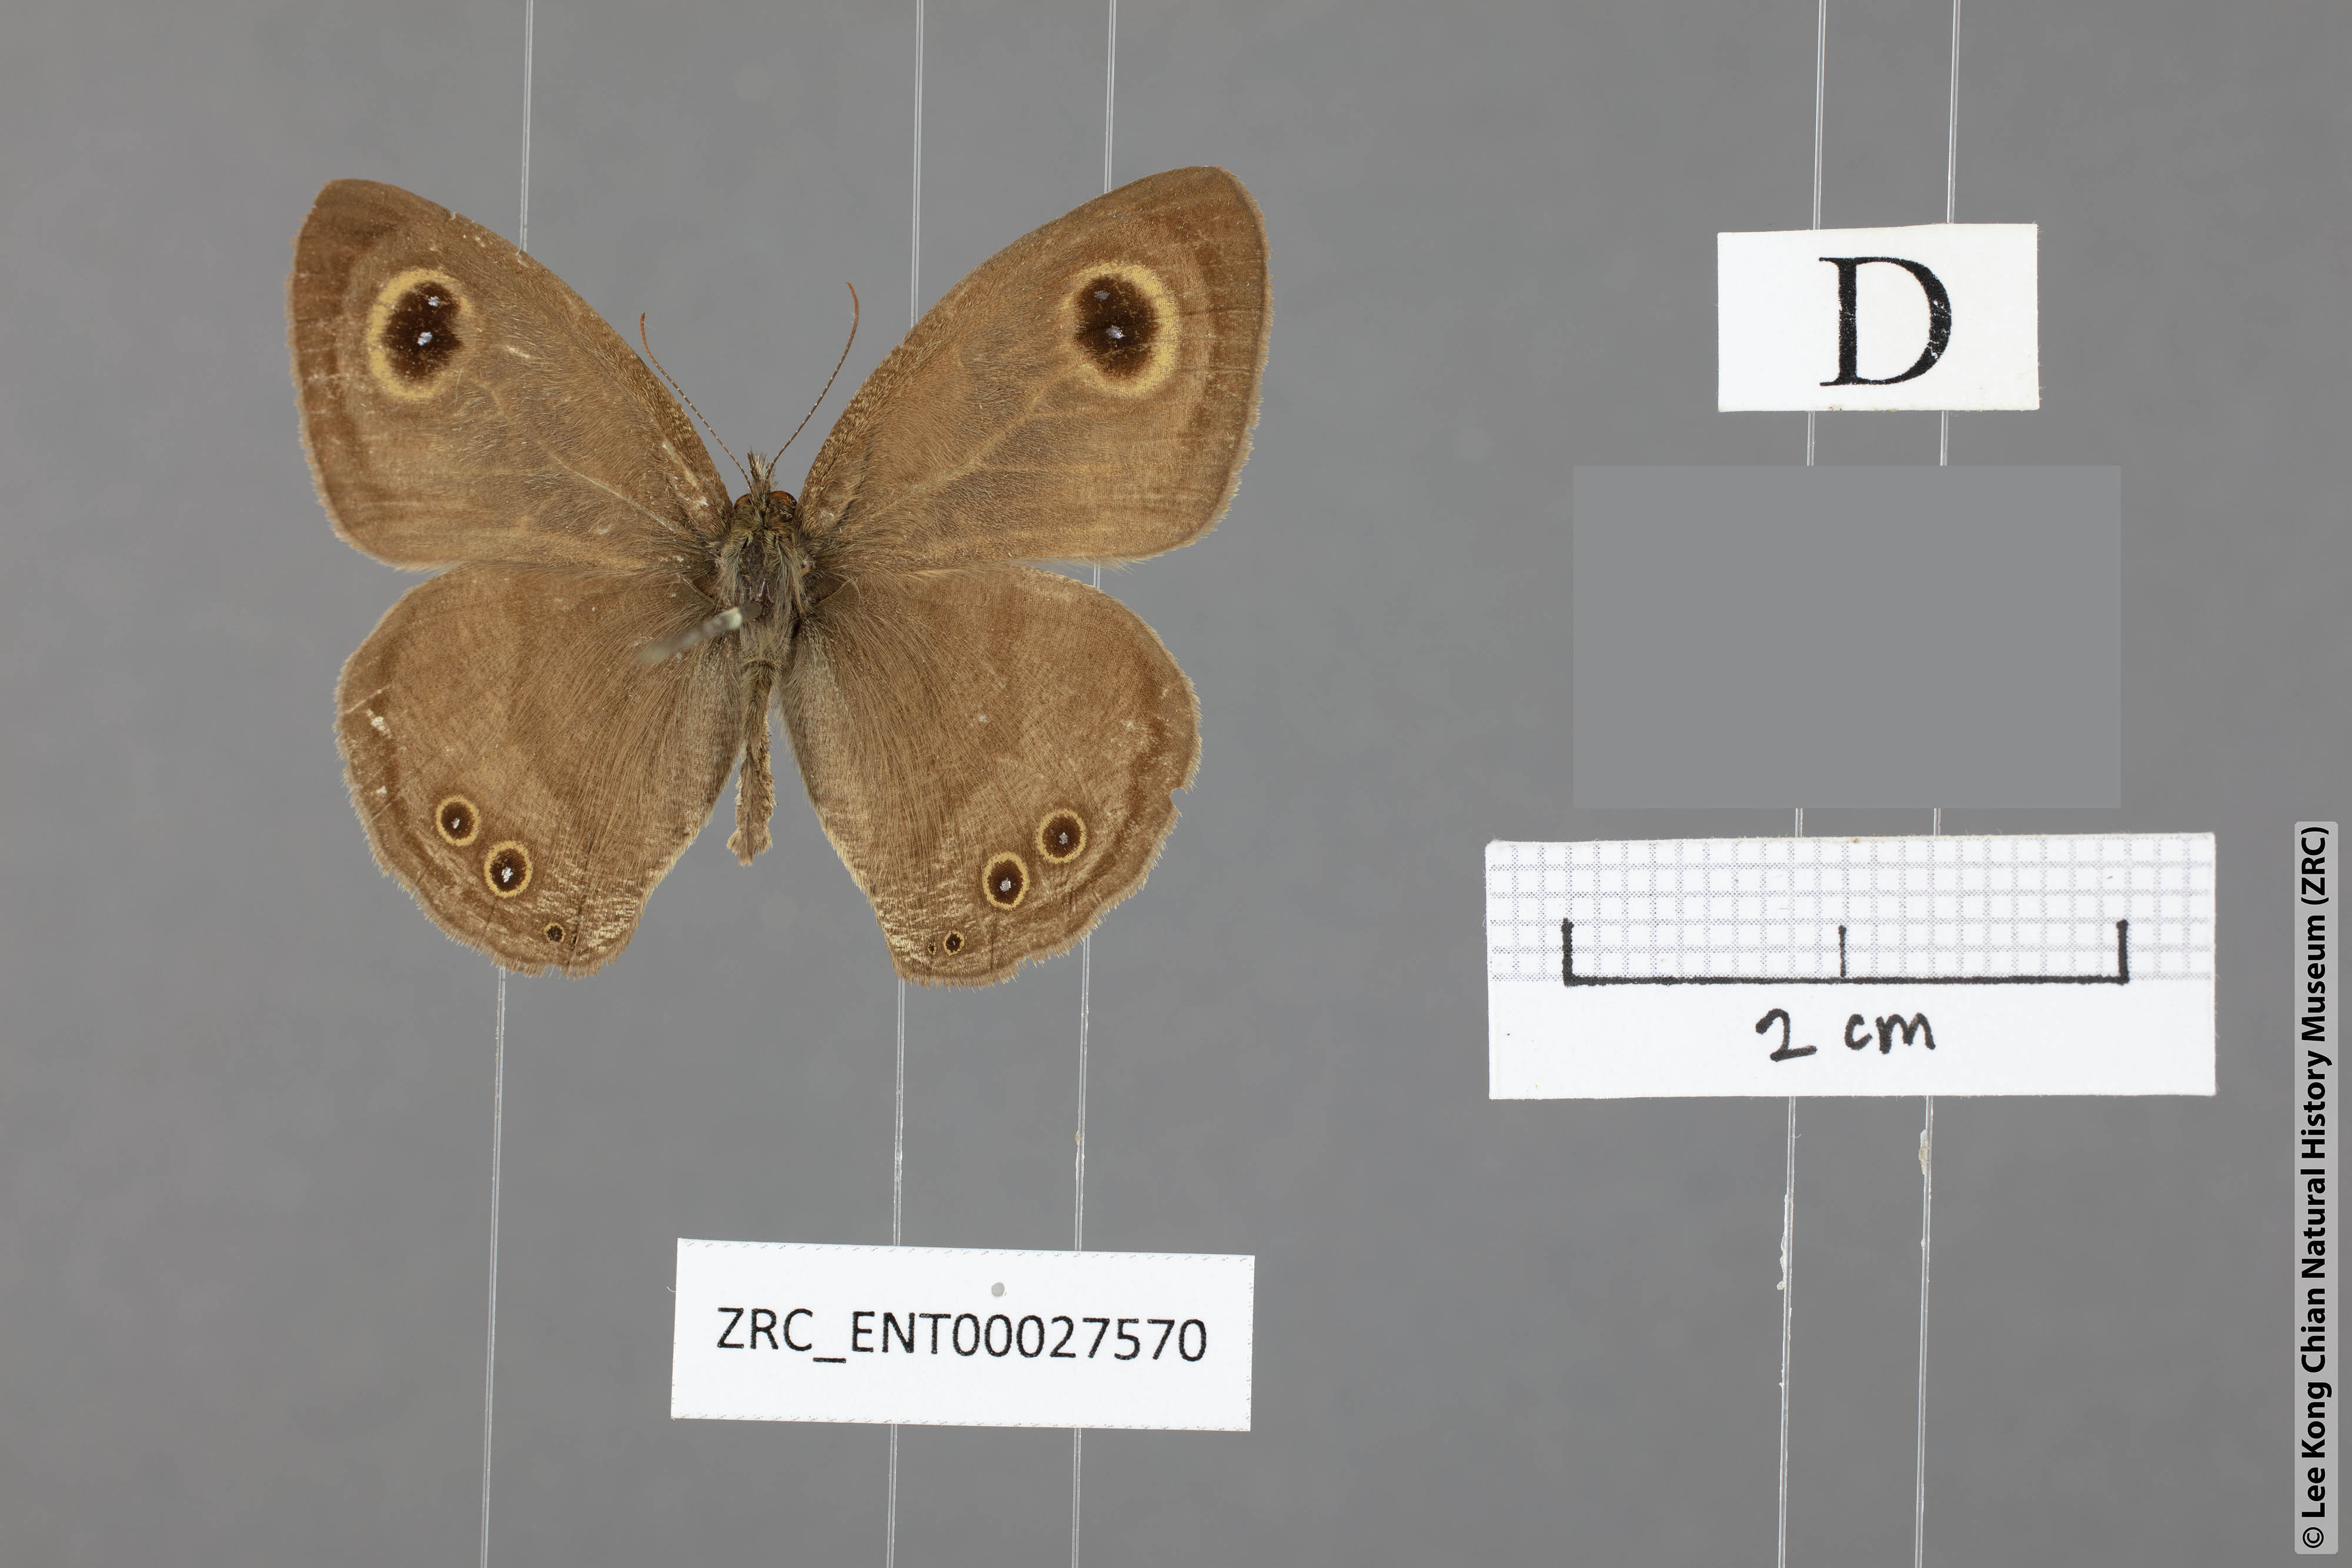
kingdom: Animalia
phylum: Arthropoda
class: Insecta
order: Lepidoptera
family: Nymphalidae
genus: Ypthima
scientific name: Ypthima savara
